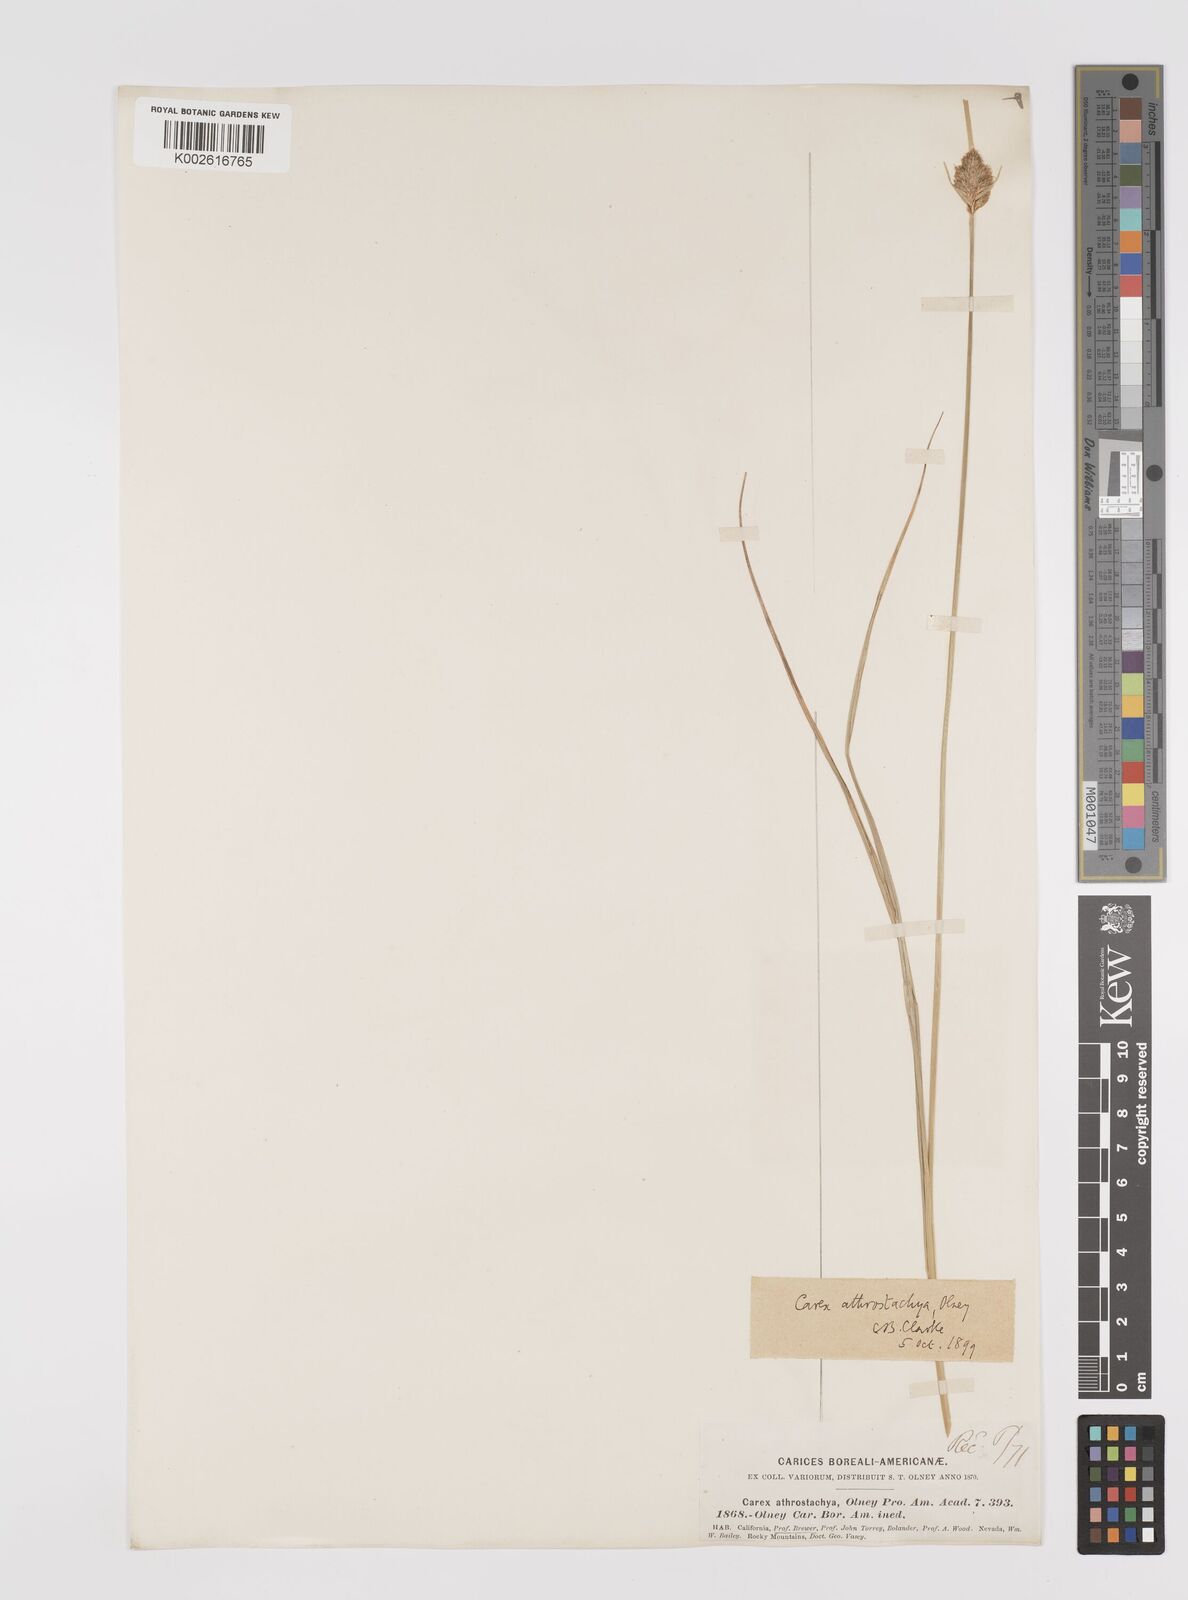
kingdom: Plantae
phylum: Tracheophyta
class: Liliopsida
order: Poales
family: Cyperaceae
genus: Carex
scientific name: Carex athrostachya
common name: Slenderbeak sedge
